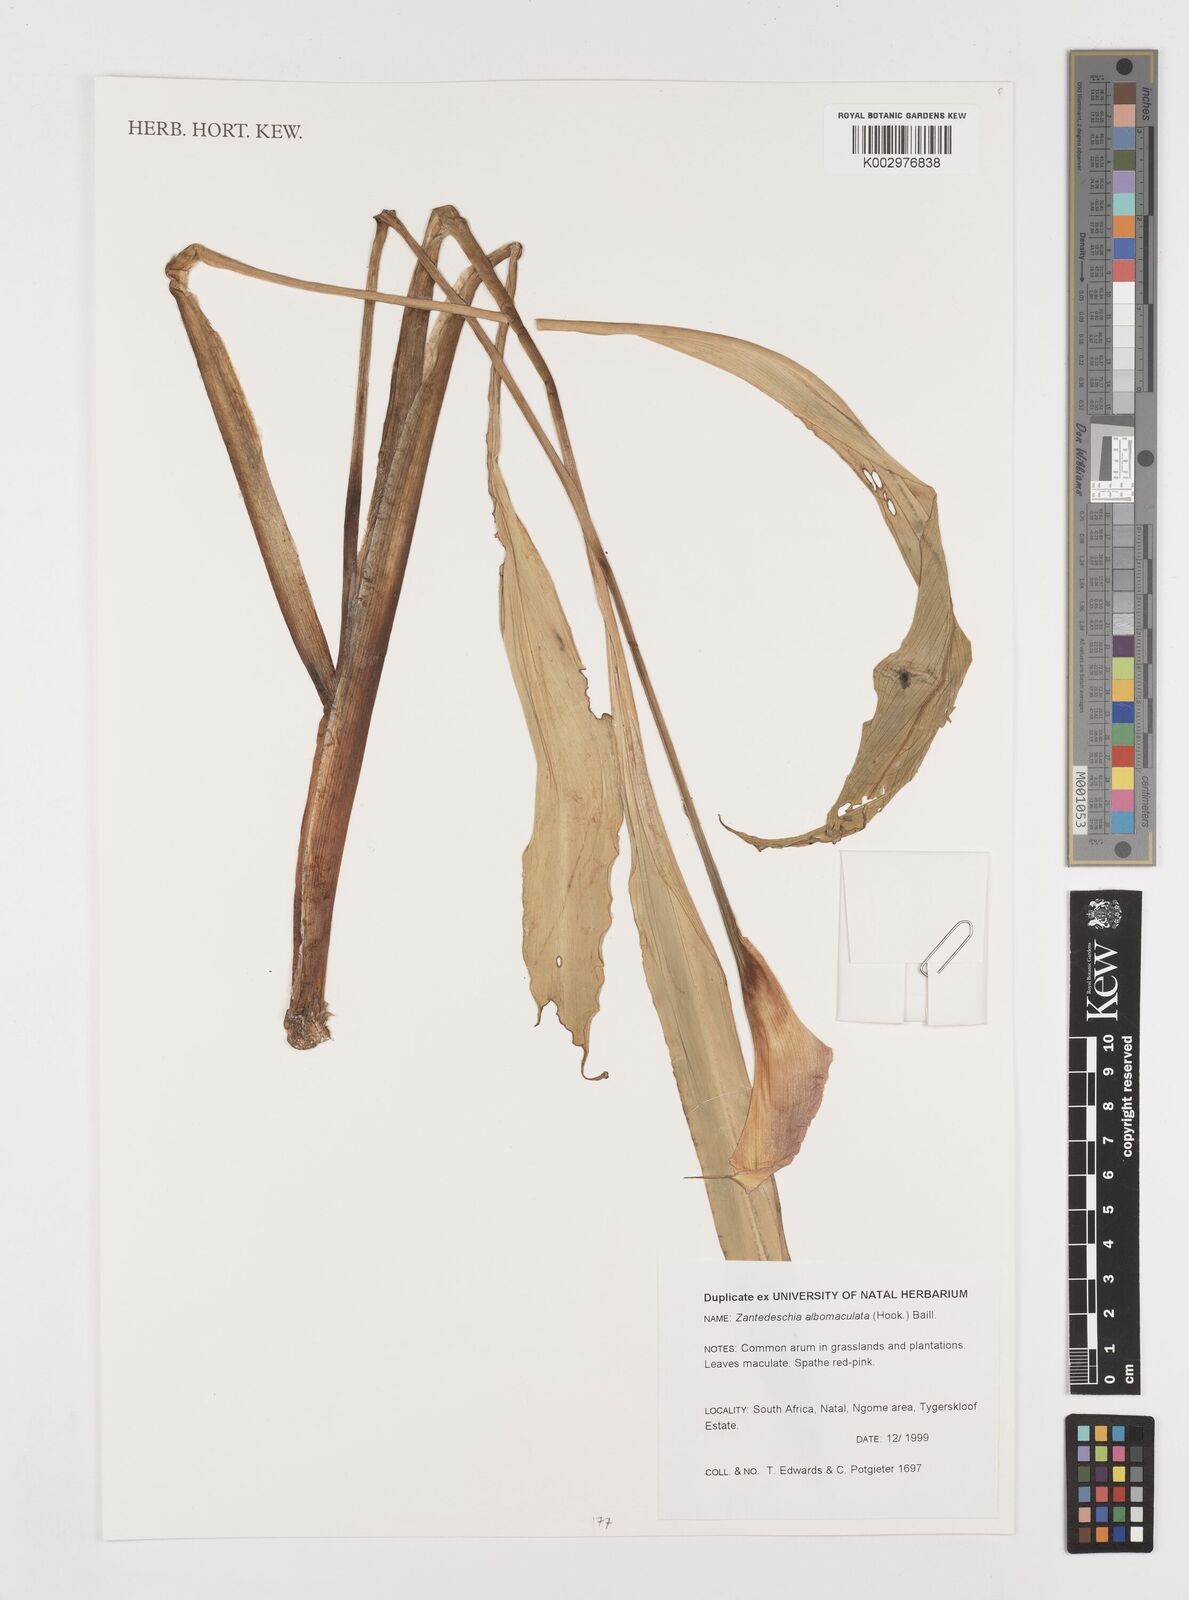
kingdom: Plantae
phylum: Tracheophyta
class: Liliopsida
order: Alismatales
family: Araceae
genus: Zantedeschia
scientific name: Zantedeschia albomaculata
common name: Spotted calla lily
